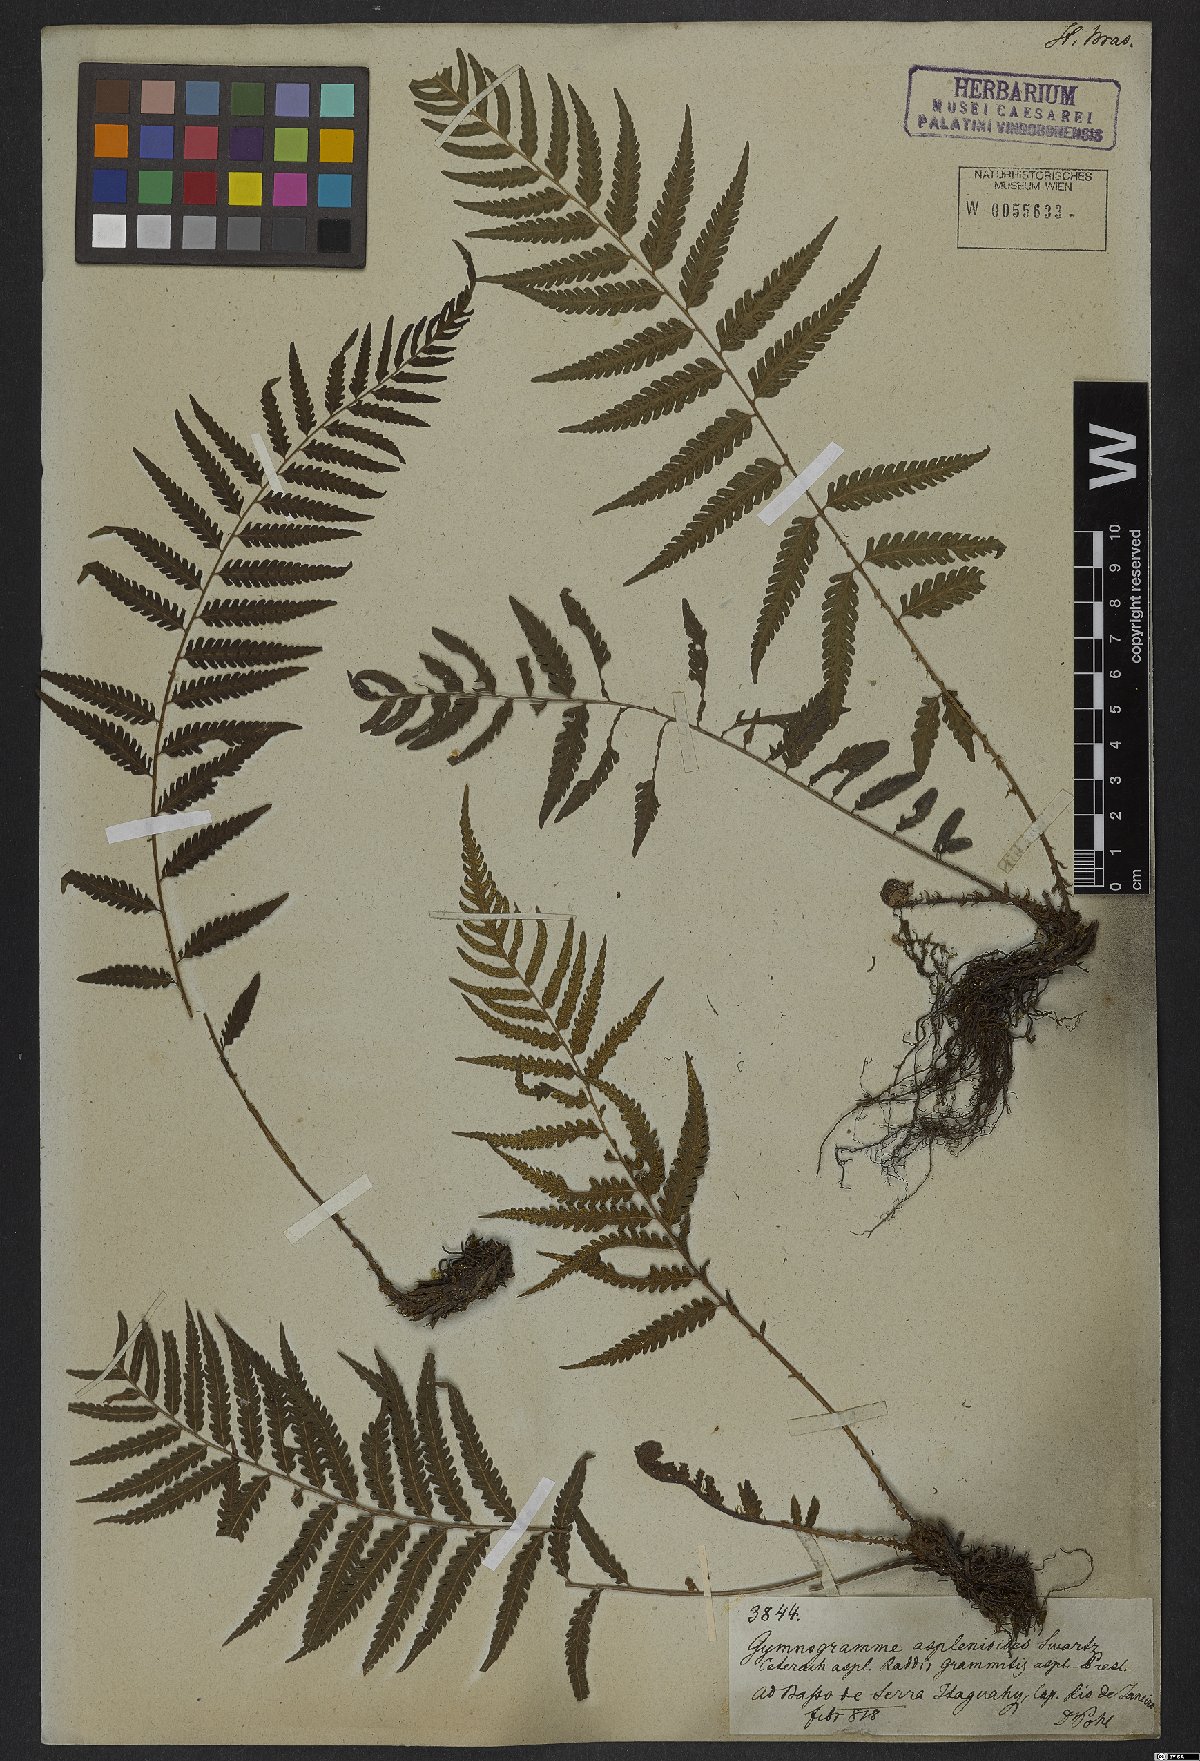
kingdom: Plantae
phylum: Tracheophyta
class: Polypodiopsida
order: Polypodiales
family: Thelypteridaceae
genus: Amauropelta
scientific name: Amauropelta aspidioides
